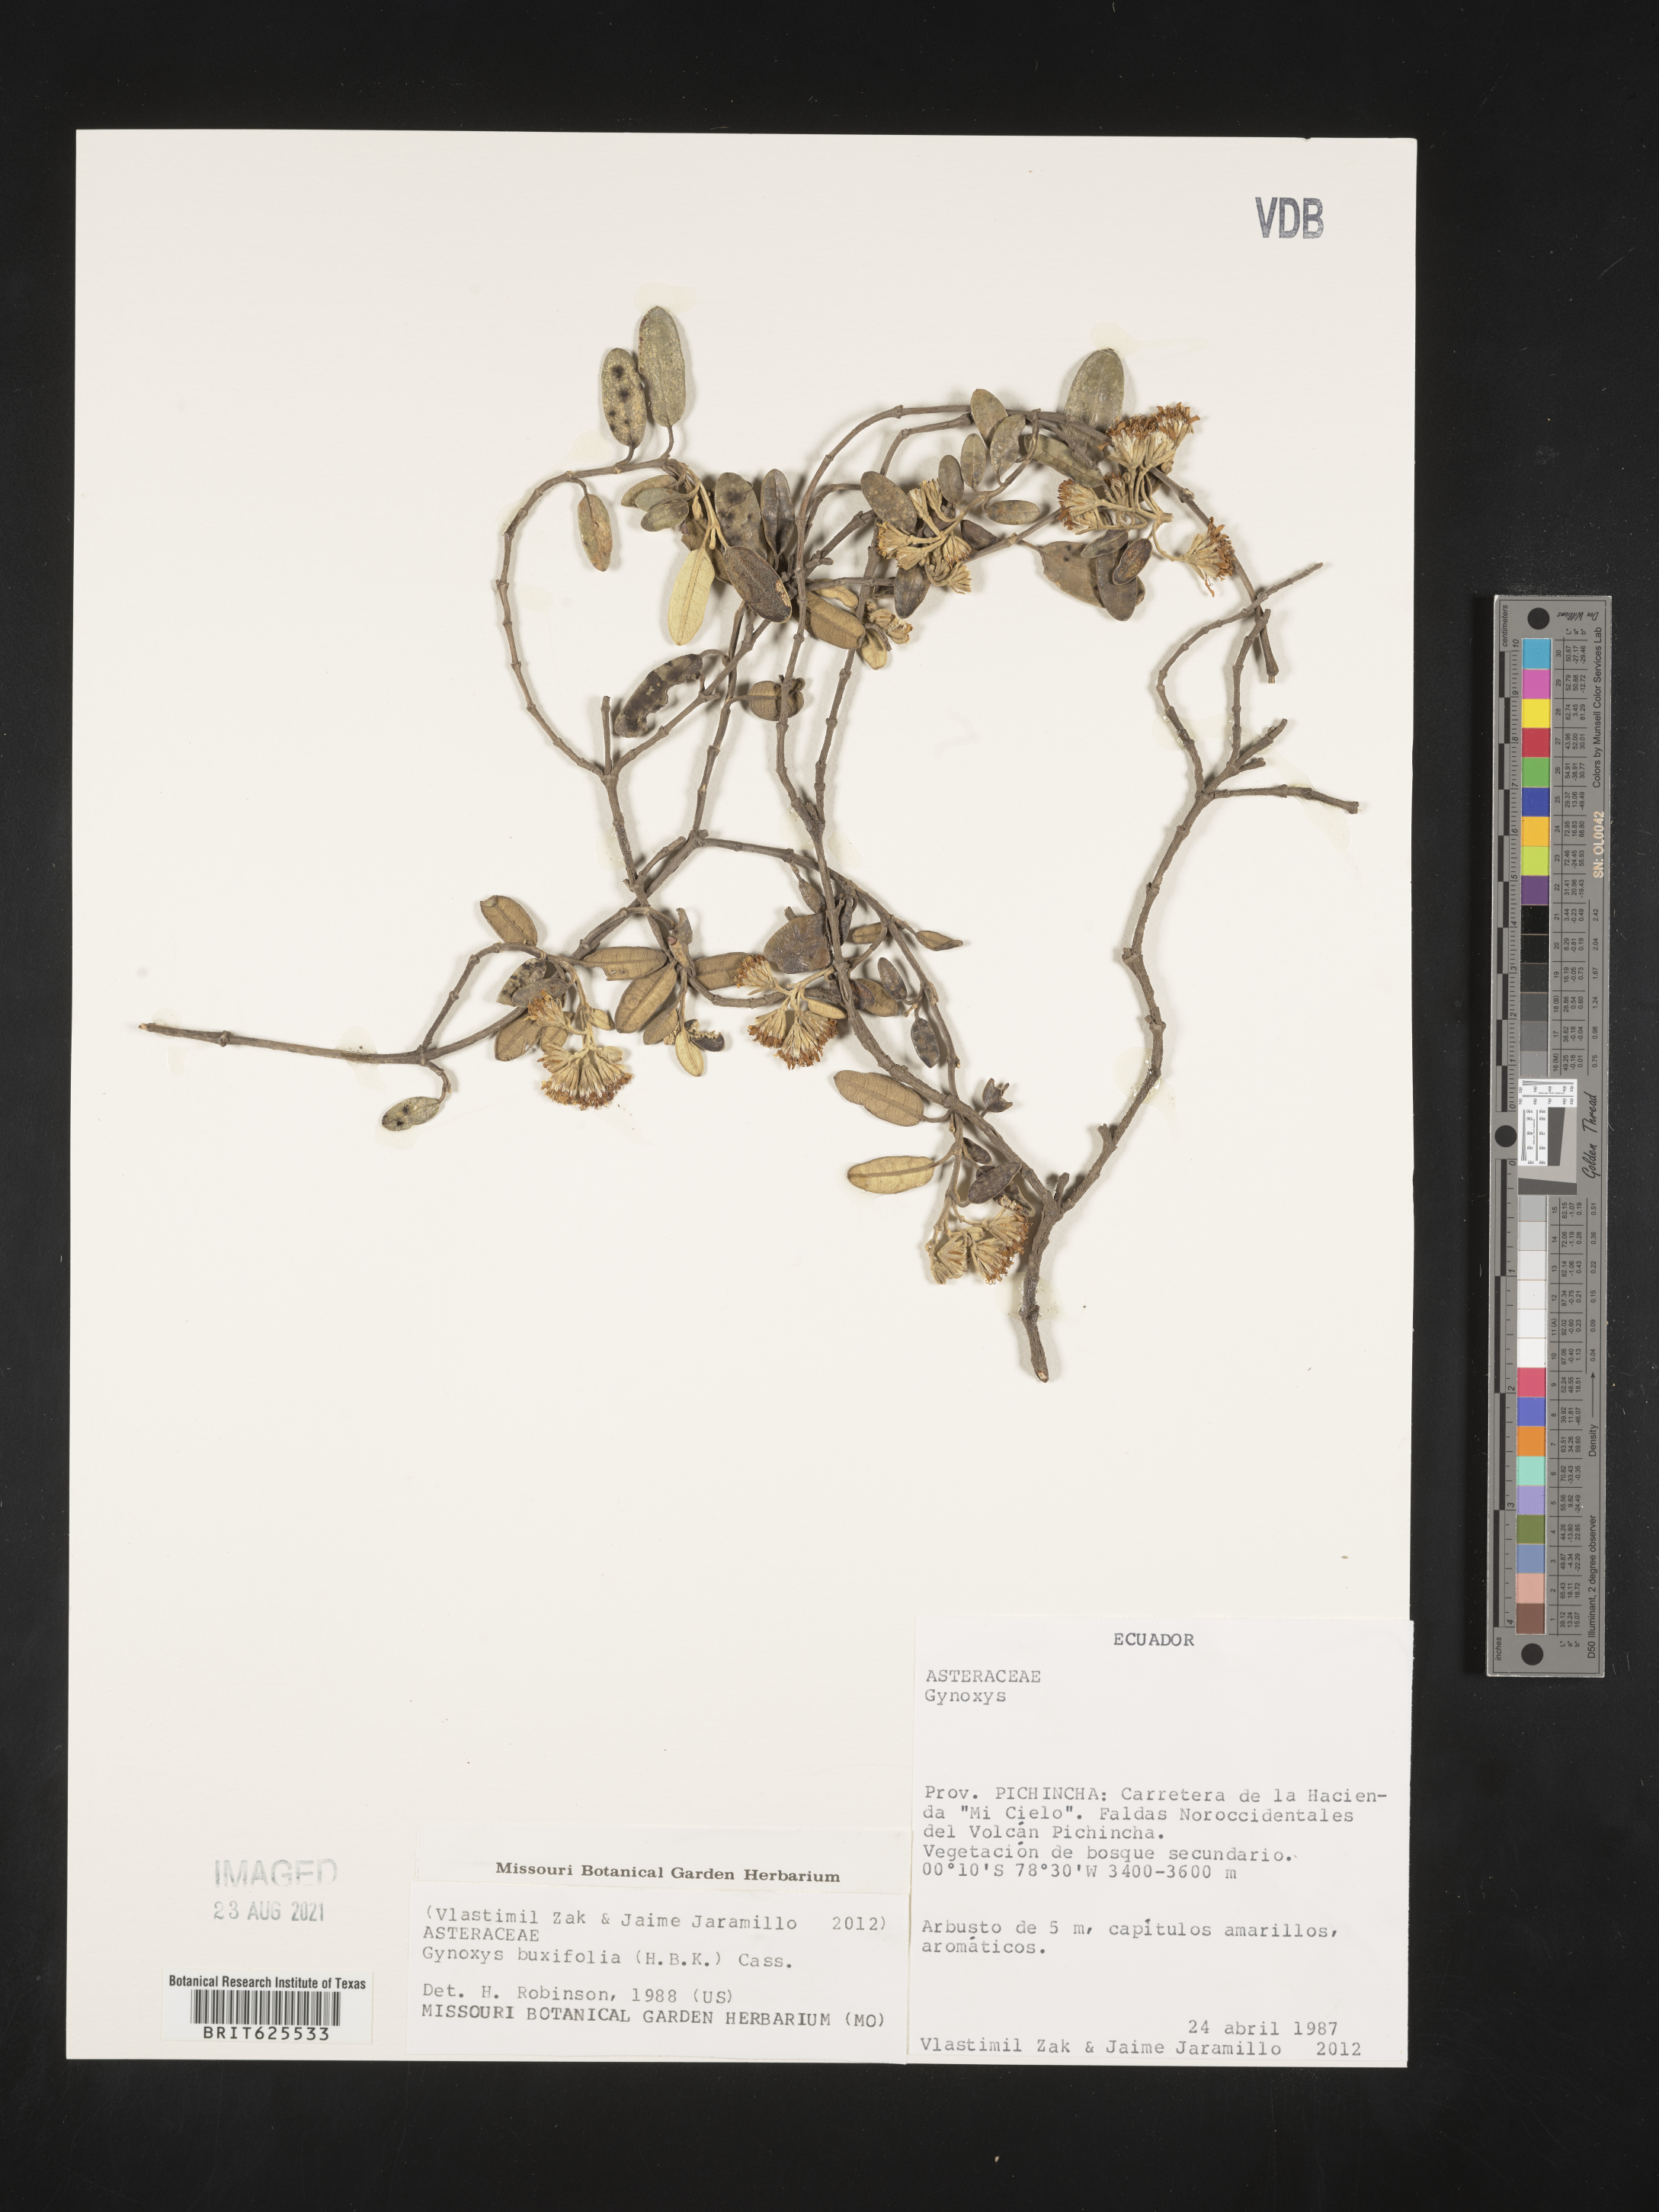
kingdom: Plantae
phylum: Tracheophyta
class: Magnoliopsida
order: Asterales
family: Asteraceae
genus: Gynoxys
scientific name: Gynoxys buxifolia
